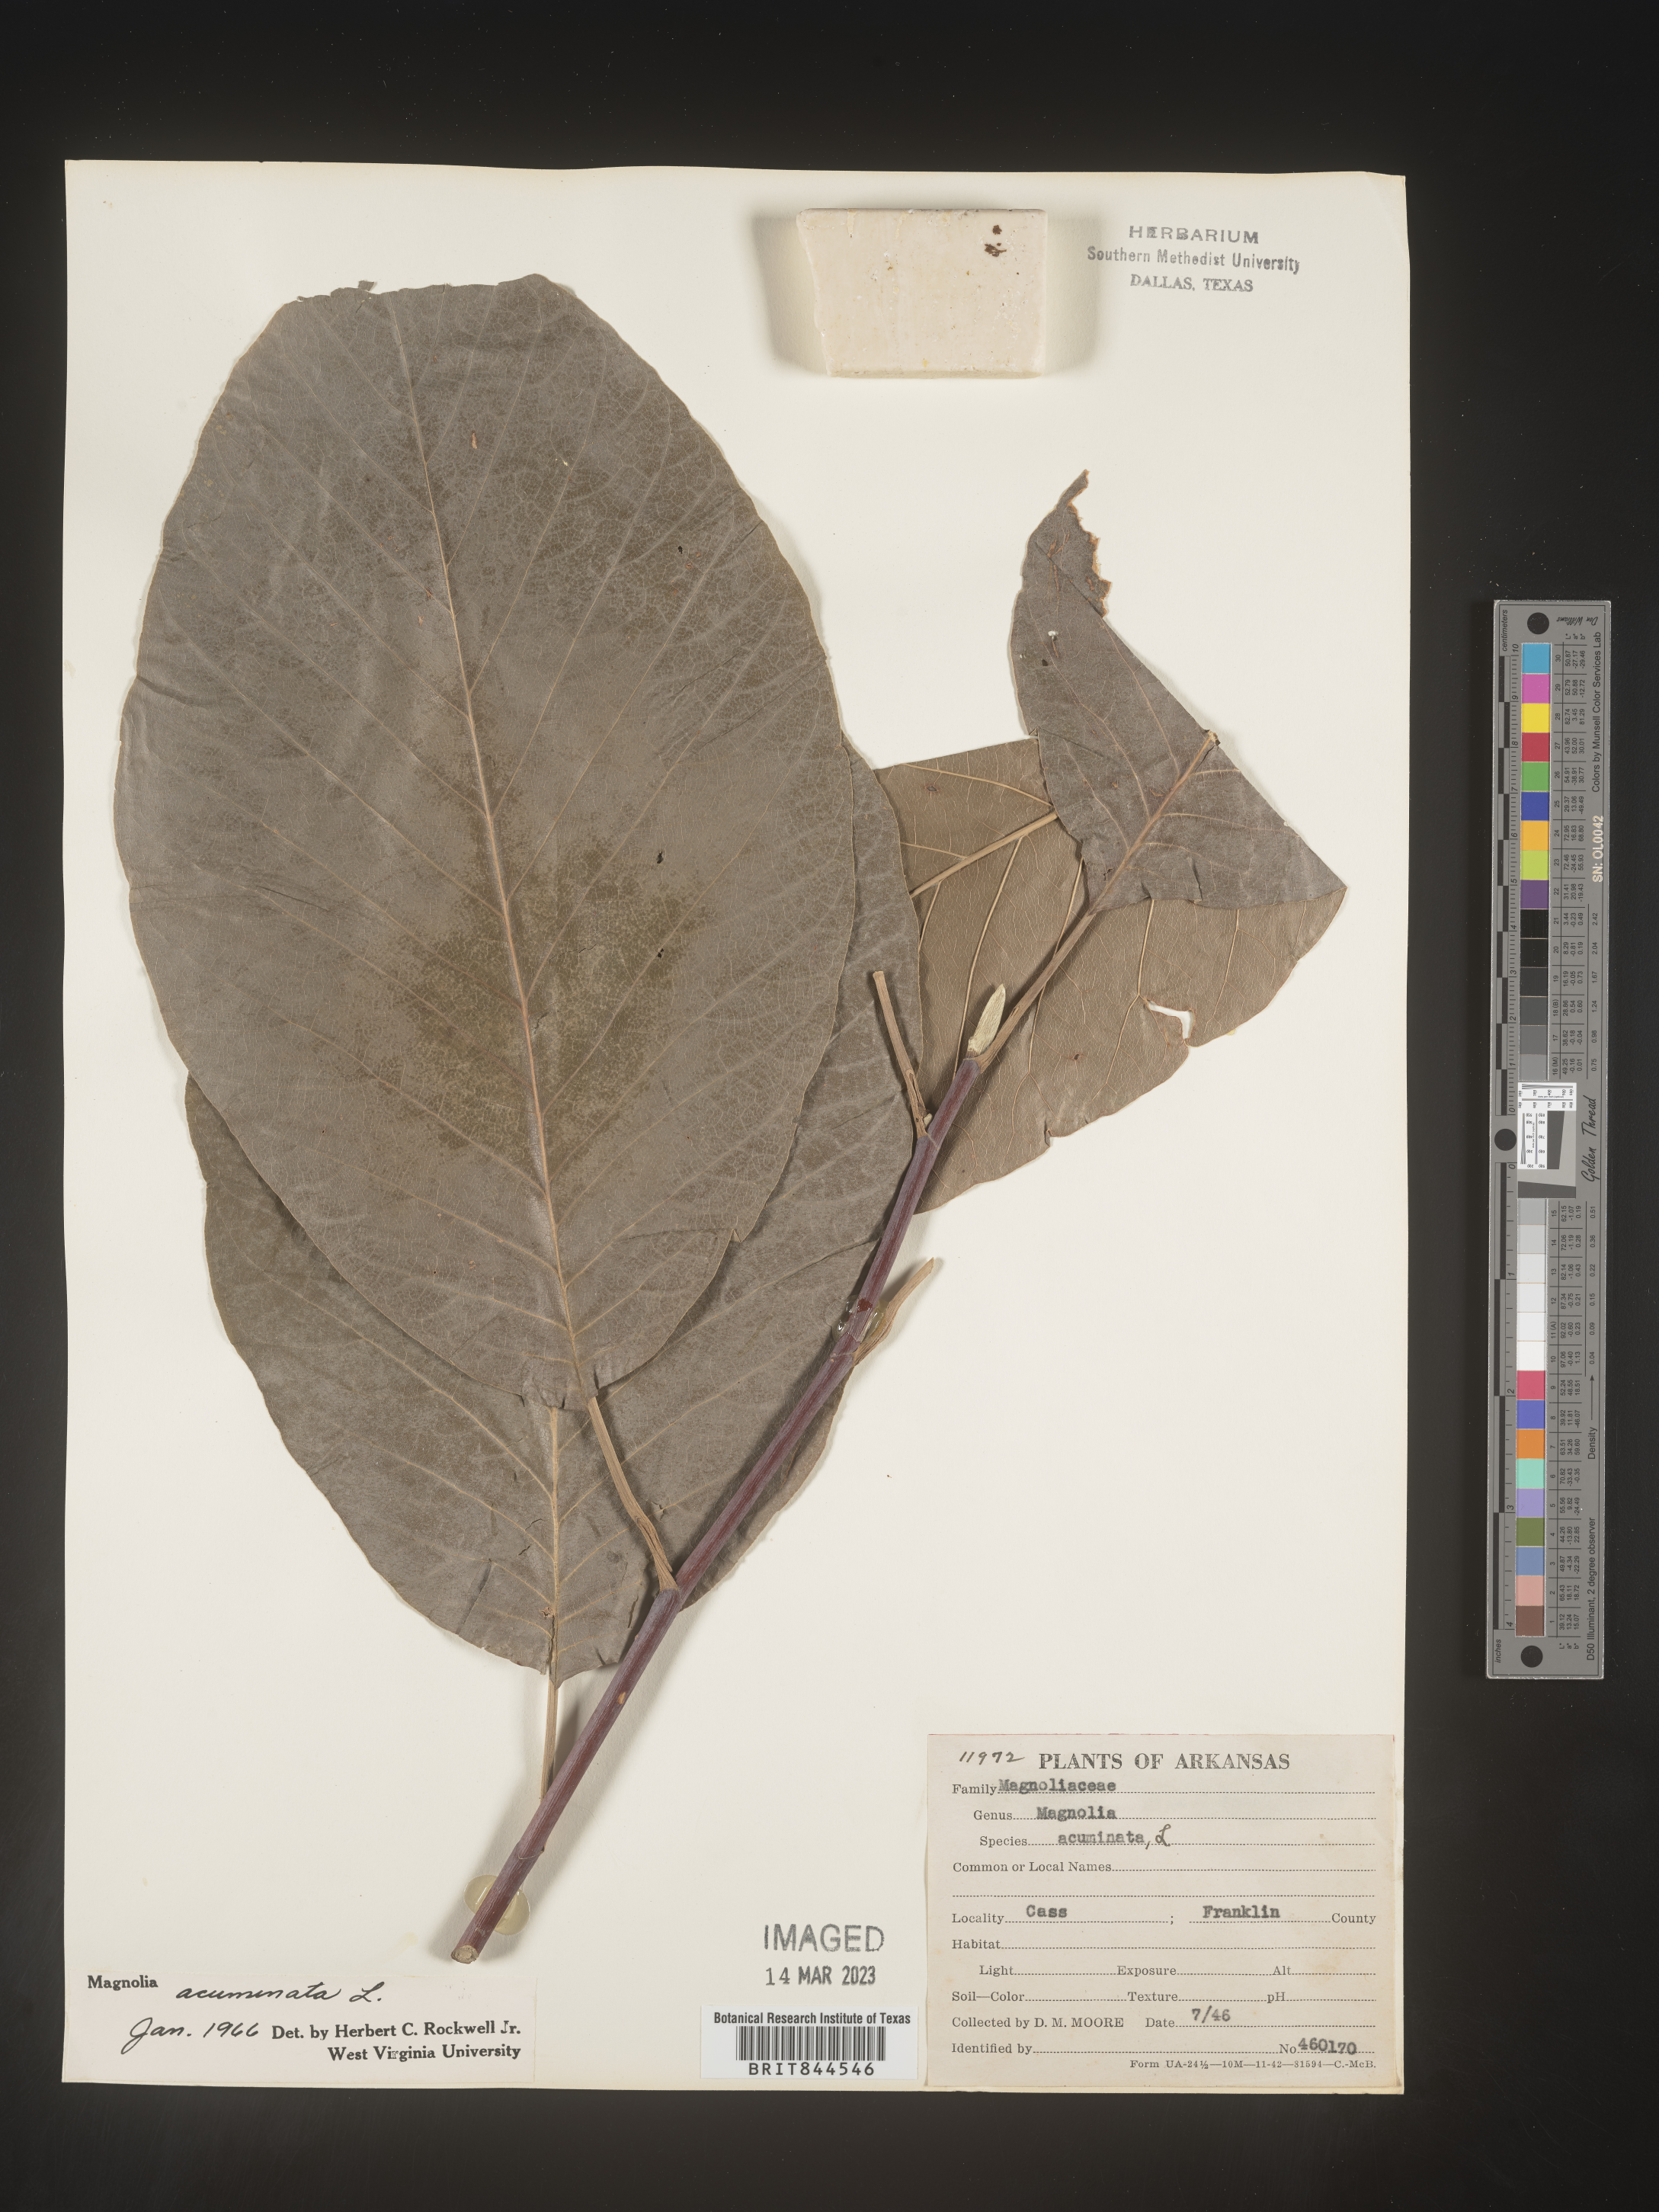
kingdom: Plantae
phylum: Tracheophyta
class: Magnoliopsida
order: Magnoliales
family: Magnoliaceae
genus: Magnolia
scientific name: Magnolia acuminata
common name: Cucumber magnolia
